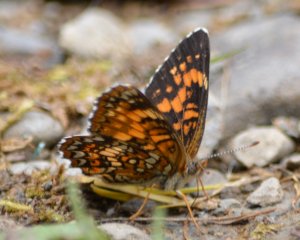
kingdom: Animalia
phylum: Arthropoda
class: Insecta
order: Lepidoptera
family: Nymphalidae
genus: Chlosyne
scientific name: Chlosyne harrisii
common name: Harris's Checkerspot
